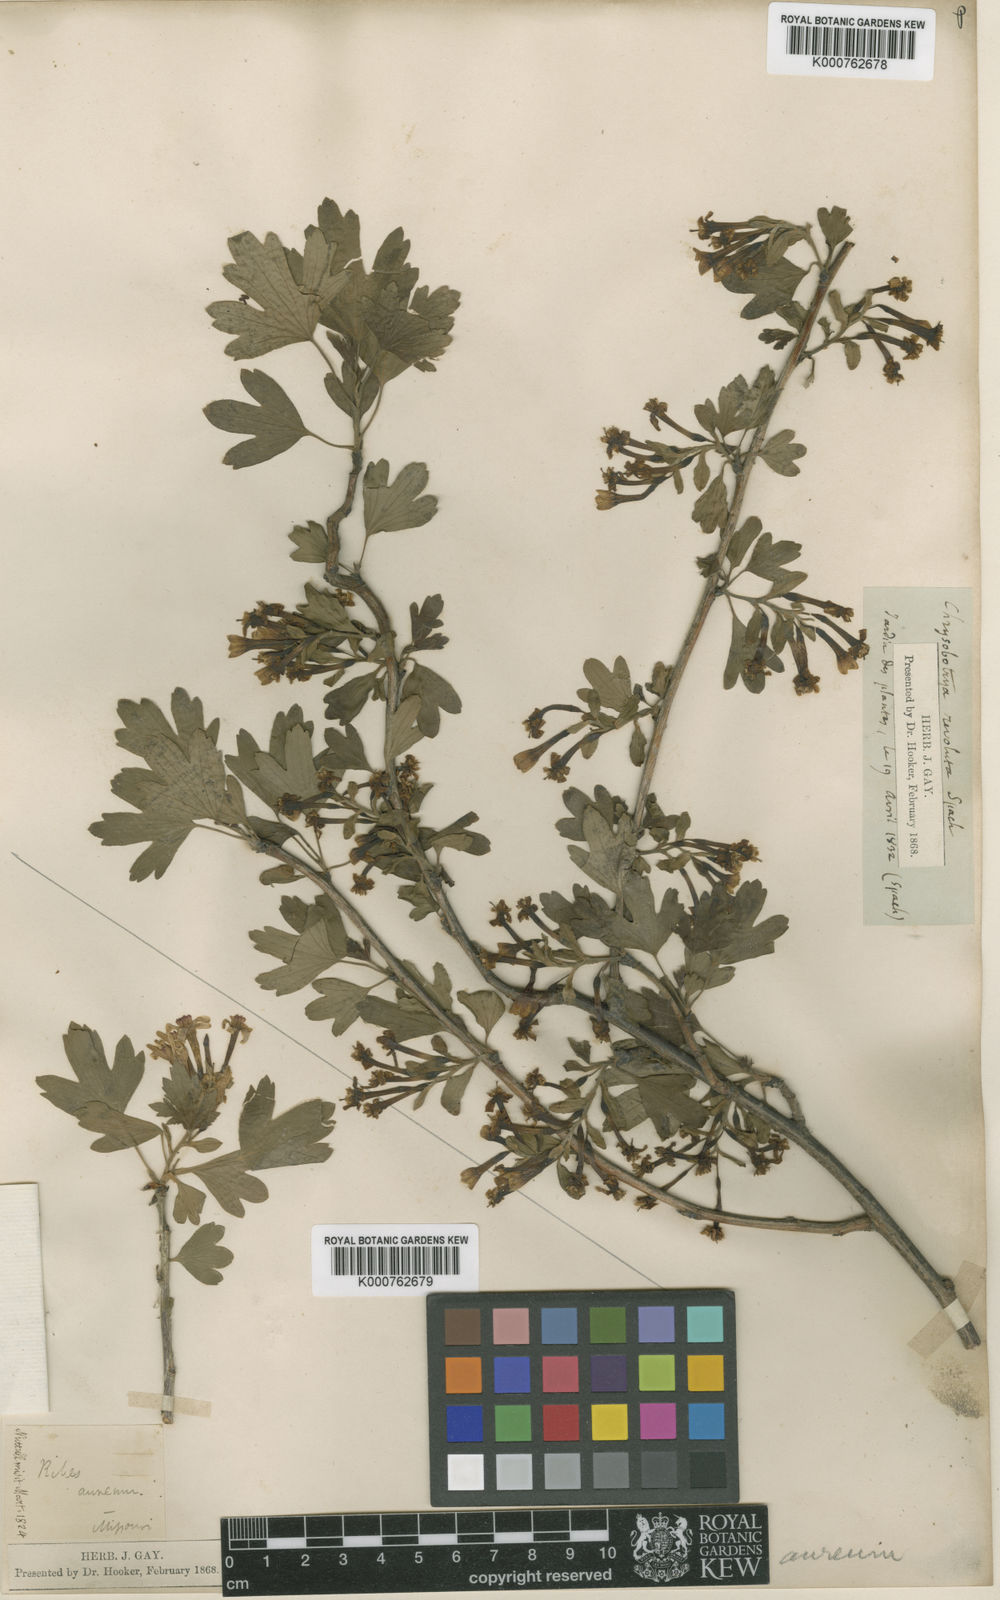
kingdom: Plantae
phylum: Tracheophyta
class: Magnoliopsida
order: Saxifragales
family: Grossulariaceae
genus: Ribes
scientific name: Ribes aureum
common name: Golden currant
